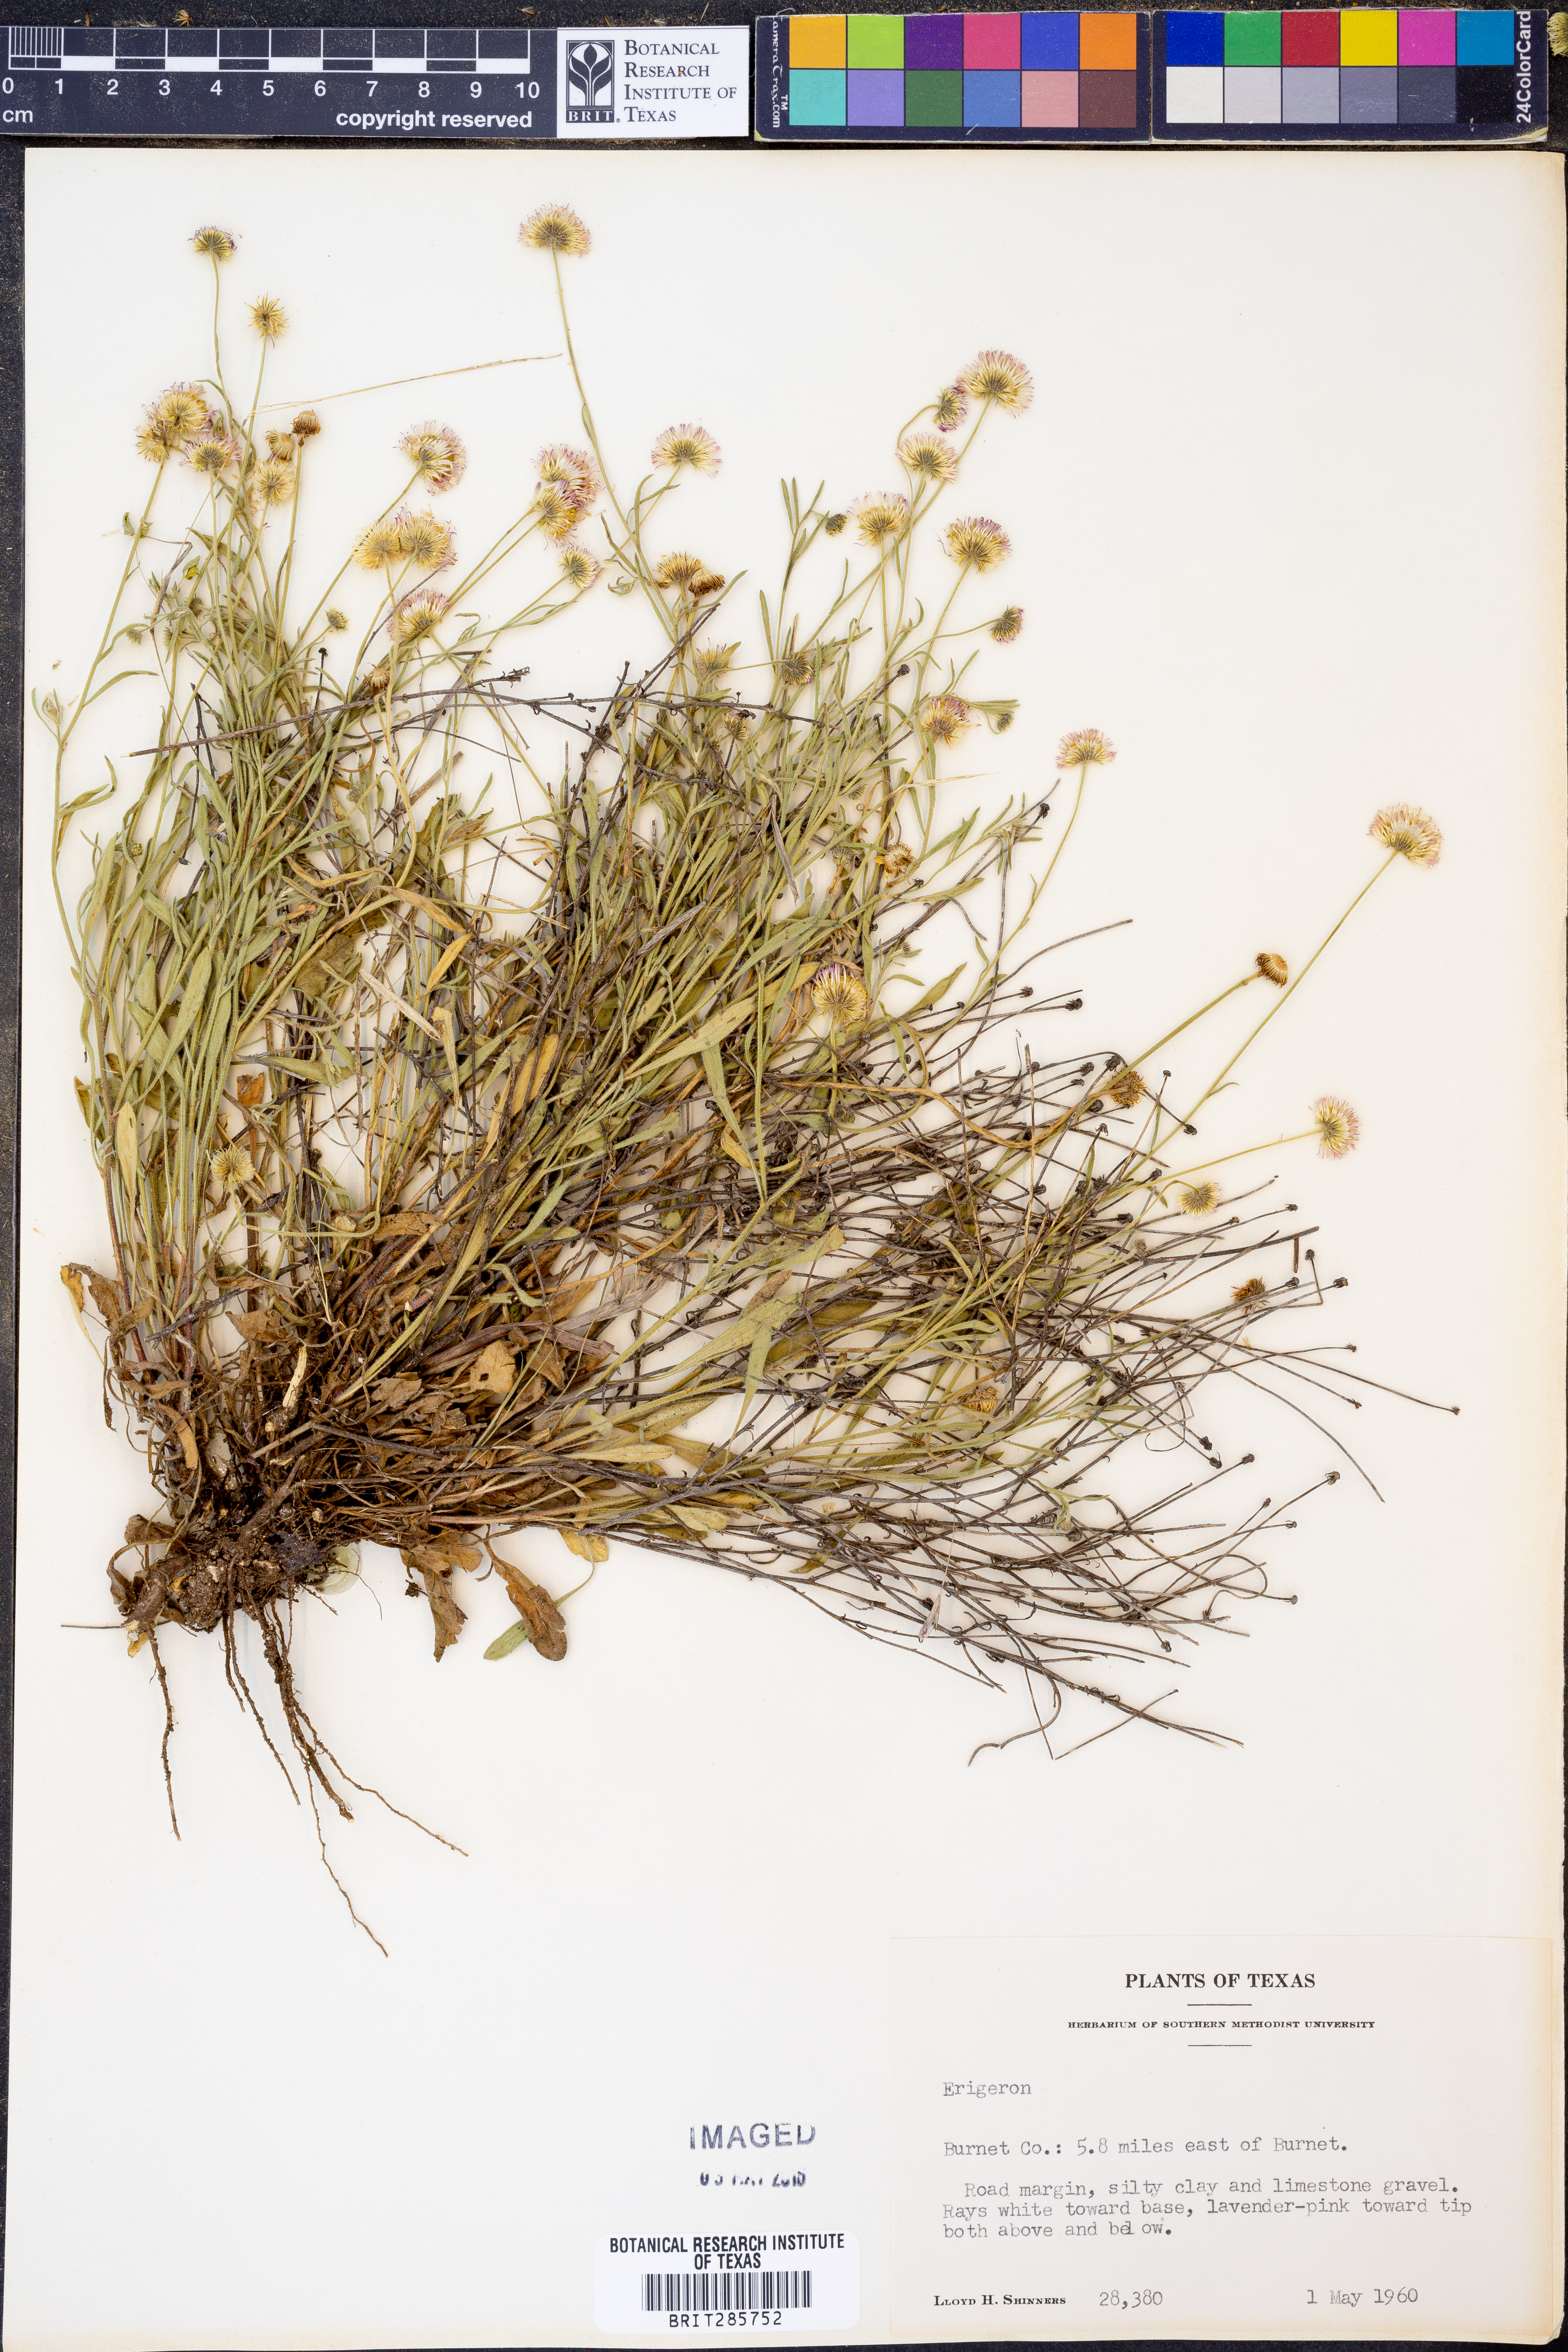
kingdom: Plantae
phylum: Tracheophyta
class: Magnoliopsida
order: Asterales
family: Asteraceae
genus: Erigeron
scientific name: Erigeron
